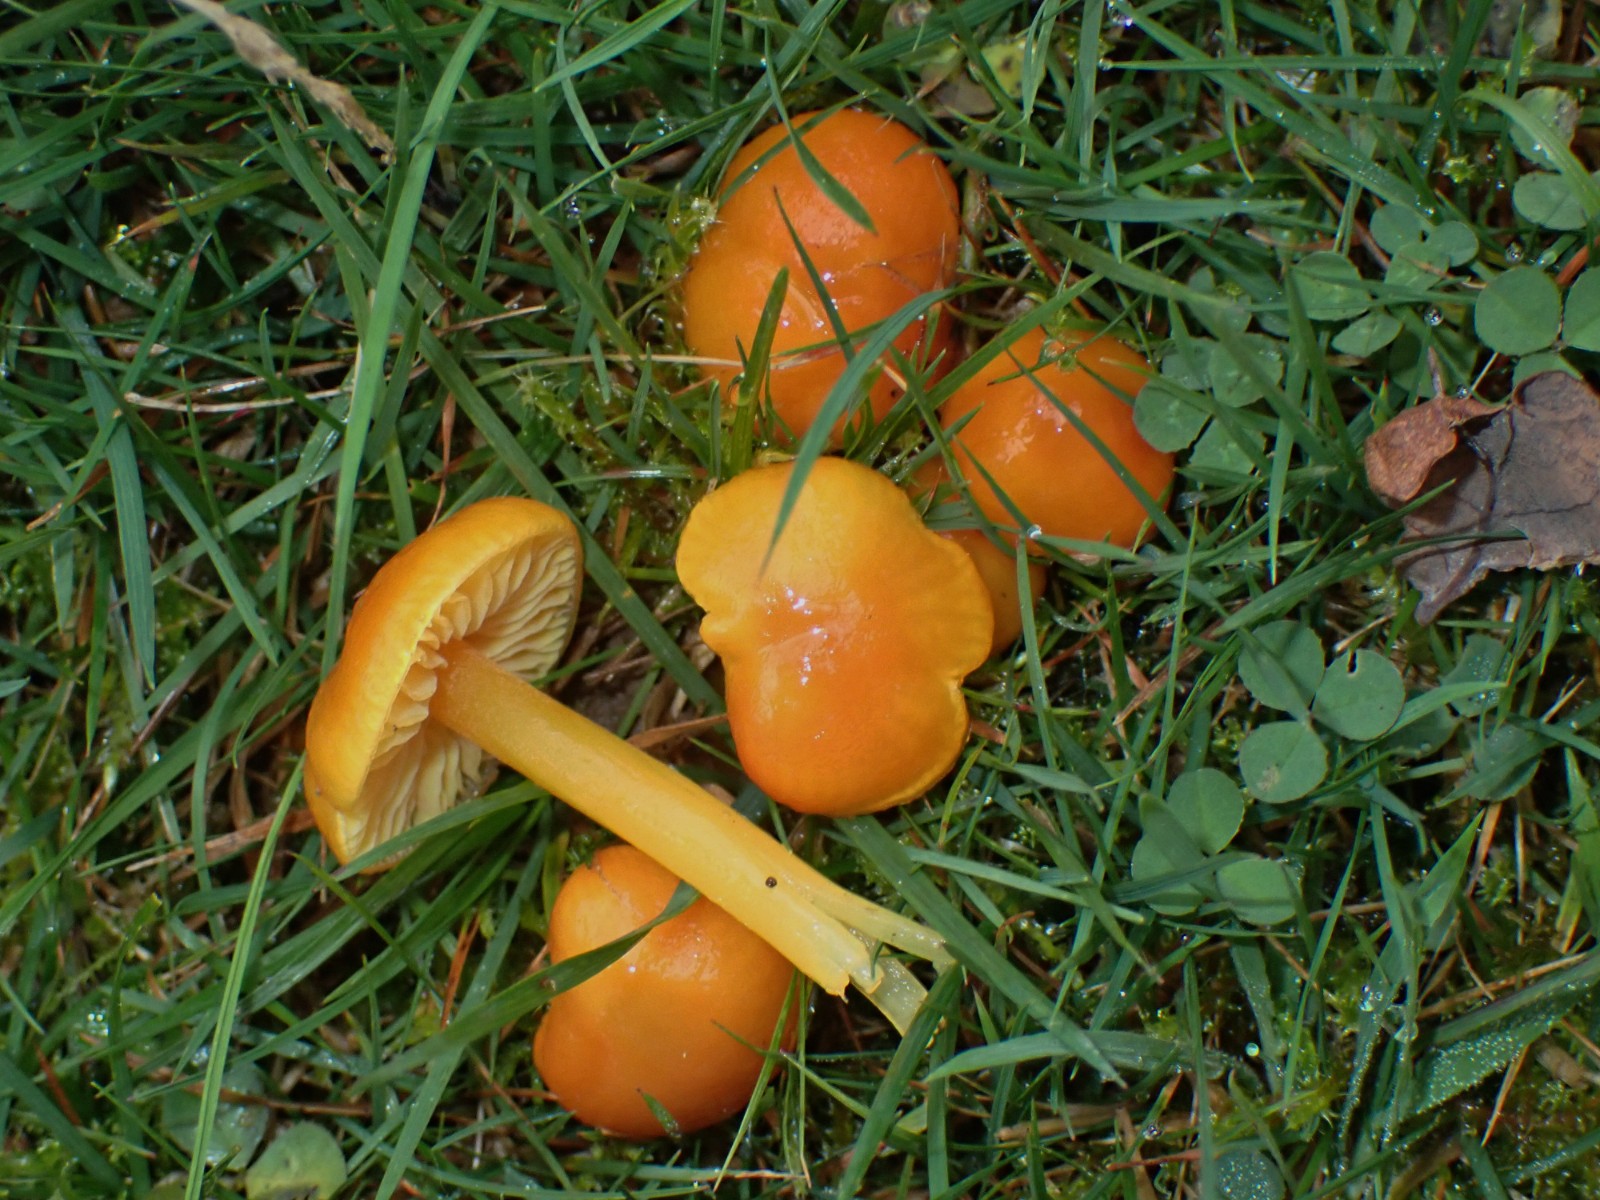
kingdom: Fungi
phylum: Basidiomycota
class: Agaricomycetes
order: Agaricales
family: Hygrophoraceae
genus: Hygrocybe
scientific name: Hygrocybe chlorophana
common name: gul vokshat
